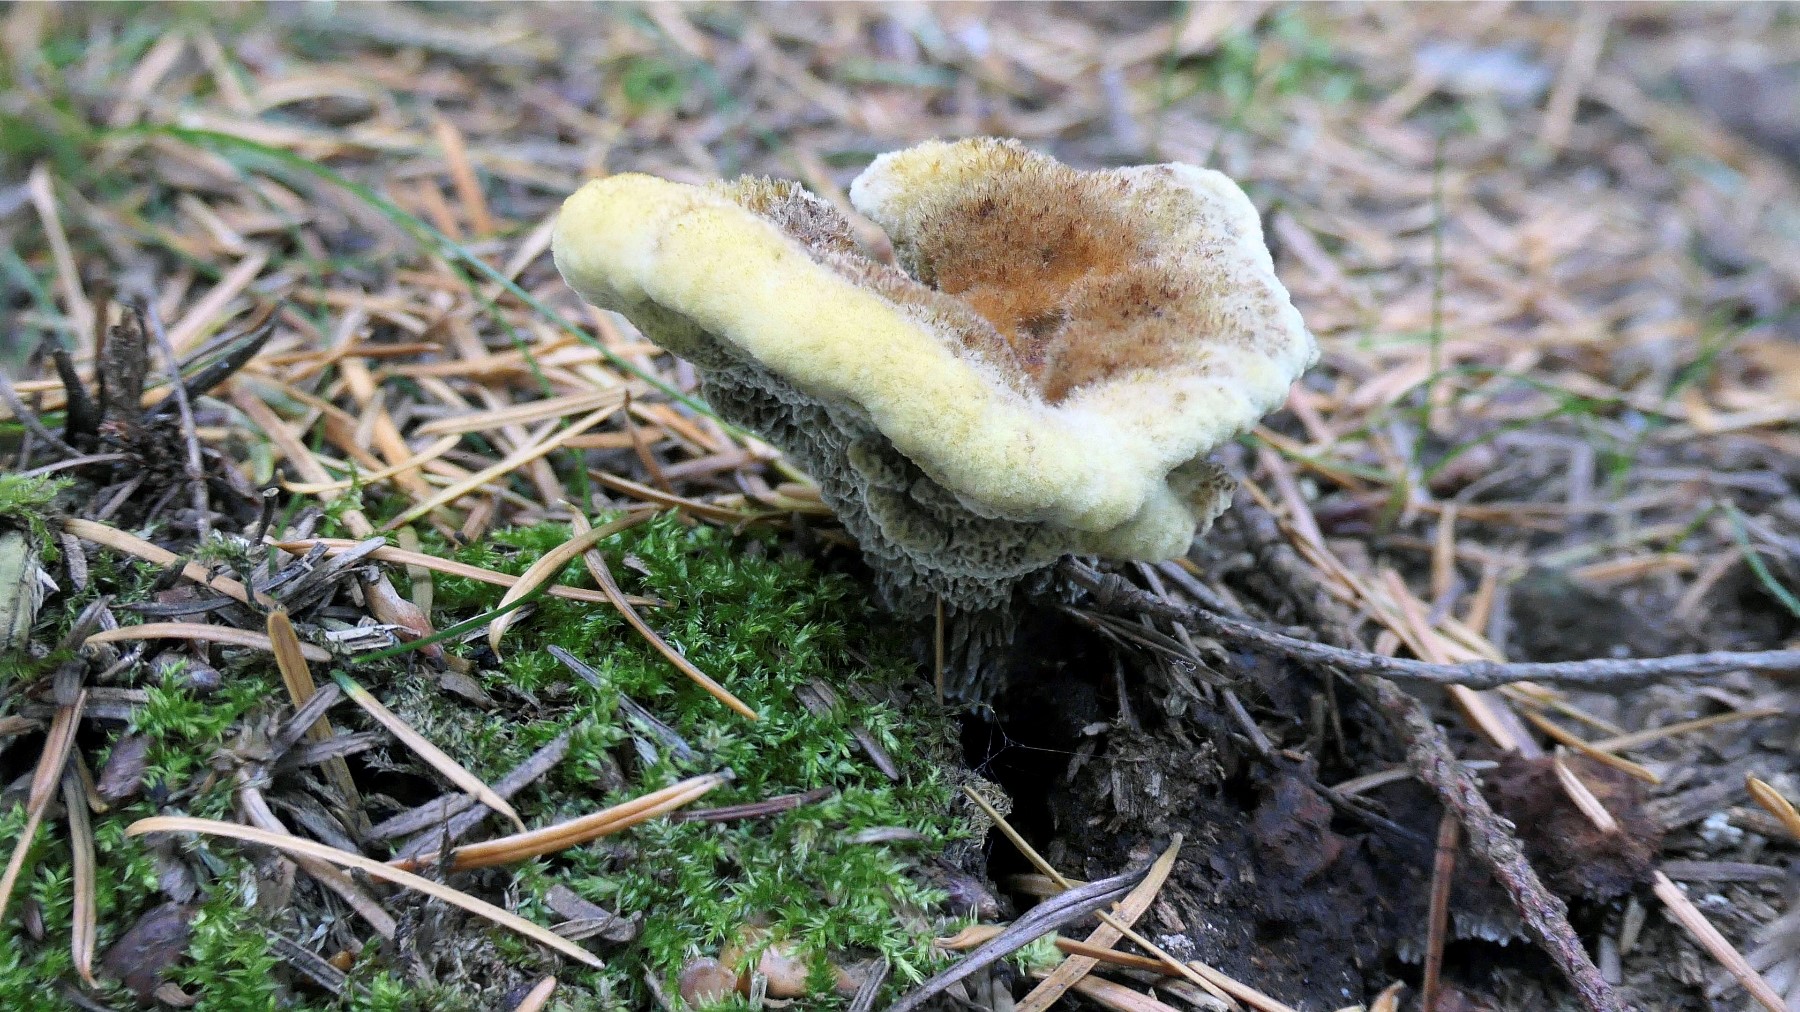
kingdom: Fungi
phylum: Basidiomycota
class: Agaricomycetes
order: Polyporales
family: Laetiporaceae
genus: Phaeolus
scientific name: Phaeolus schweinitzii
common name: brunporesvamp
